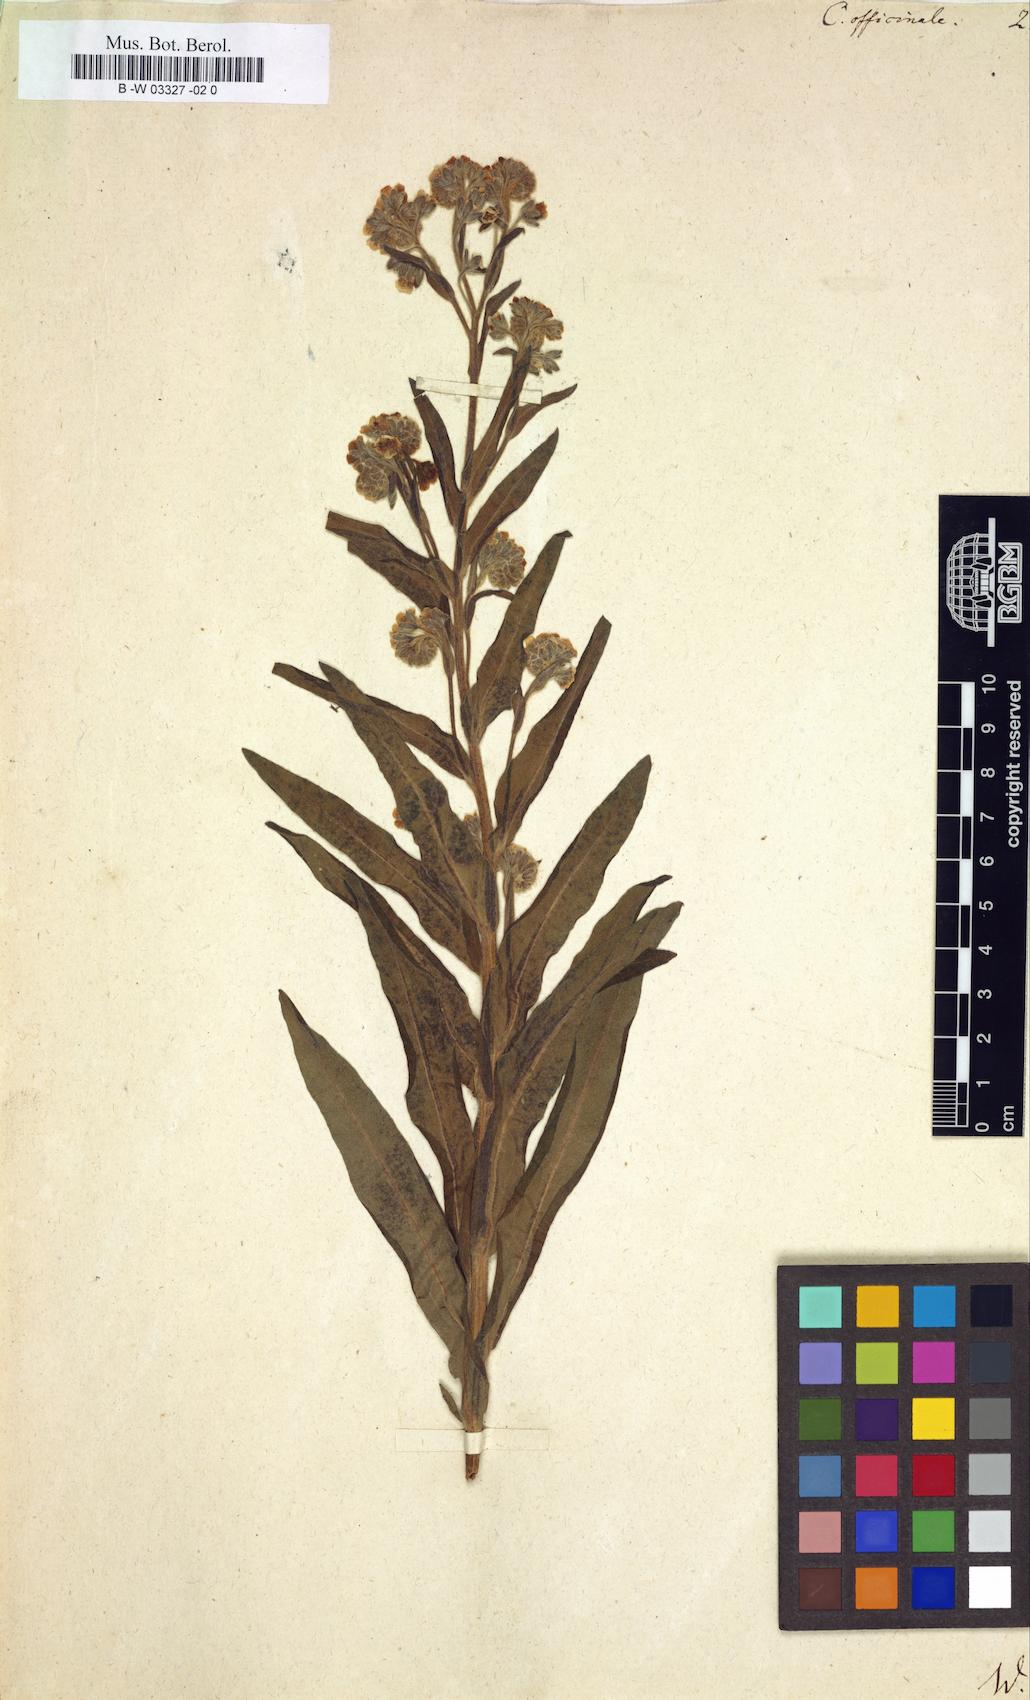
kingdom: Plantae
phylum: Tracheophyta
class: Magnoliopsida
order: Boraginales
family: Boraginaceae
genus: Cynoglossum
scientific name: Cynoglossum officinale
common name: Hound's-tongue
